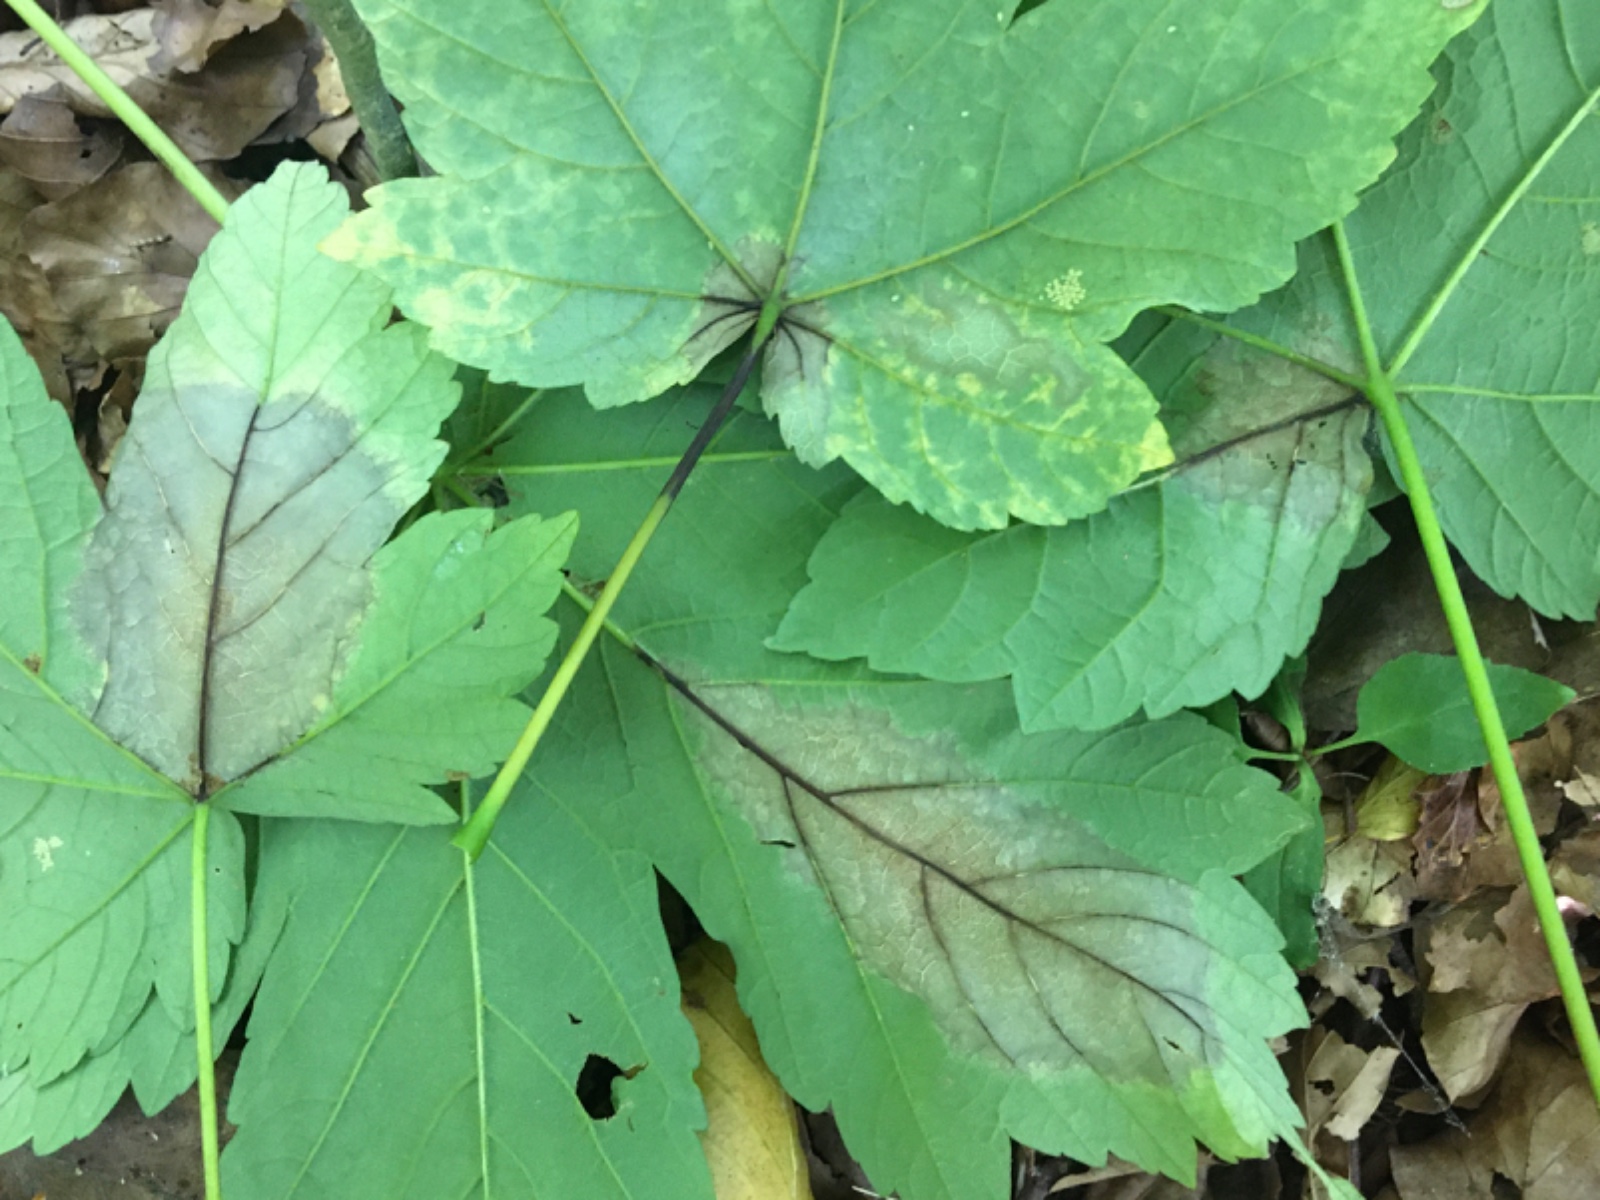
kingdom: Fungi
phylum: Ascomycota
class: Sordariomycetes
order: Diaporthales
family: Gnomoniaceae
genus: Pleuroceras
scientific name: Pleuroceras pseudoplatani
